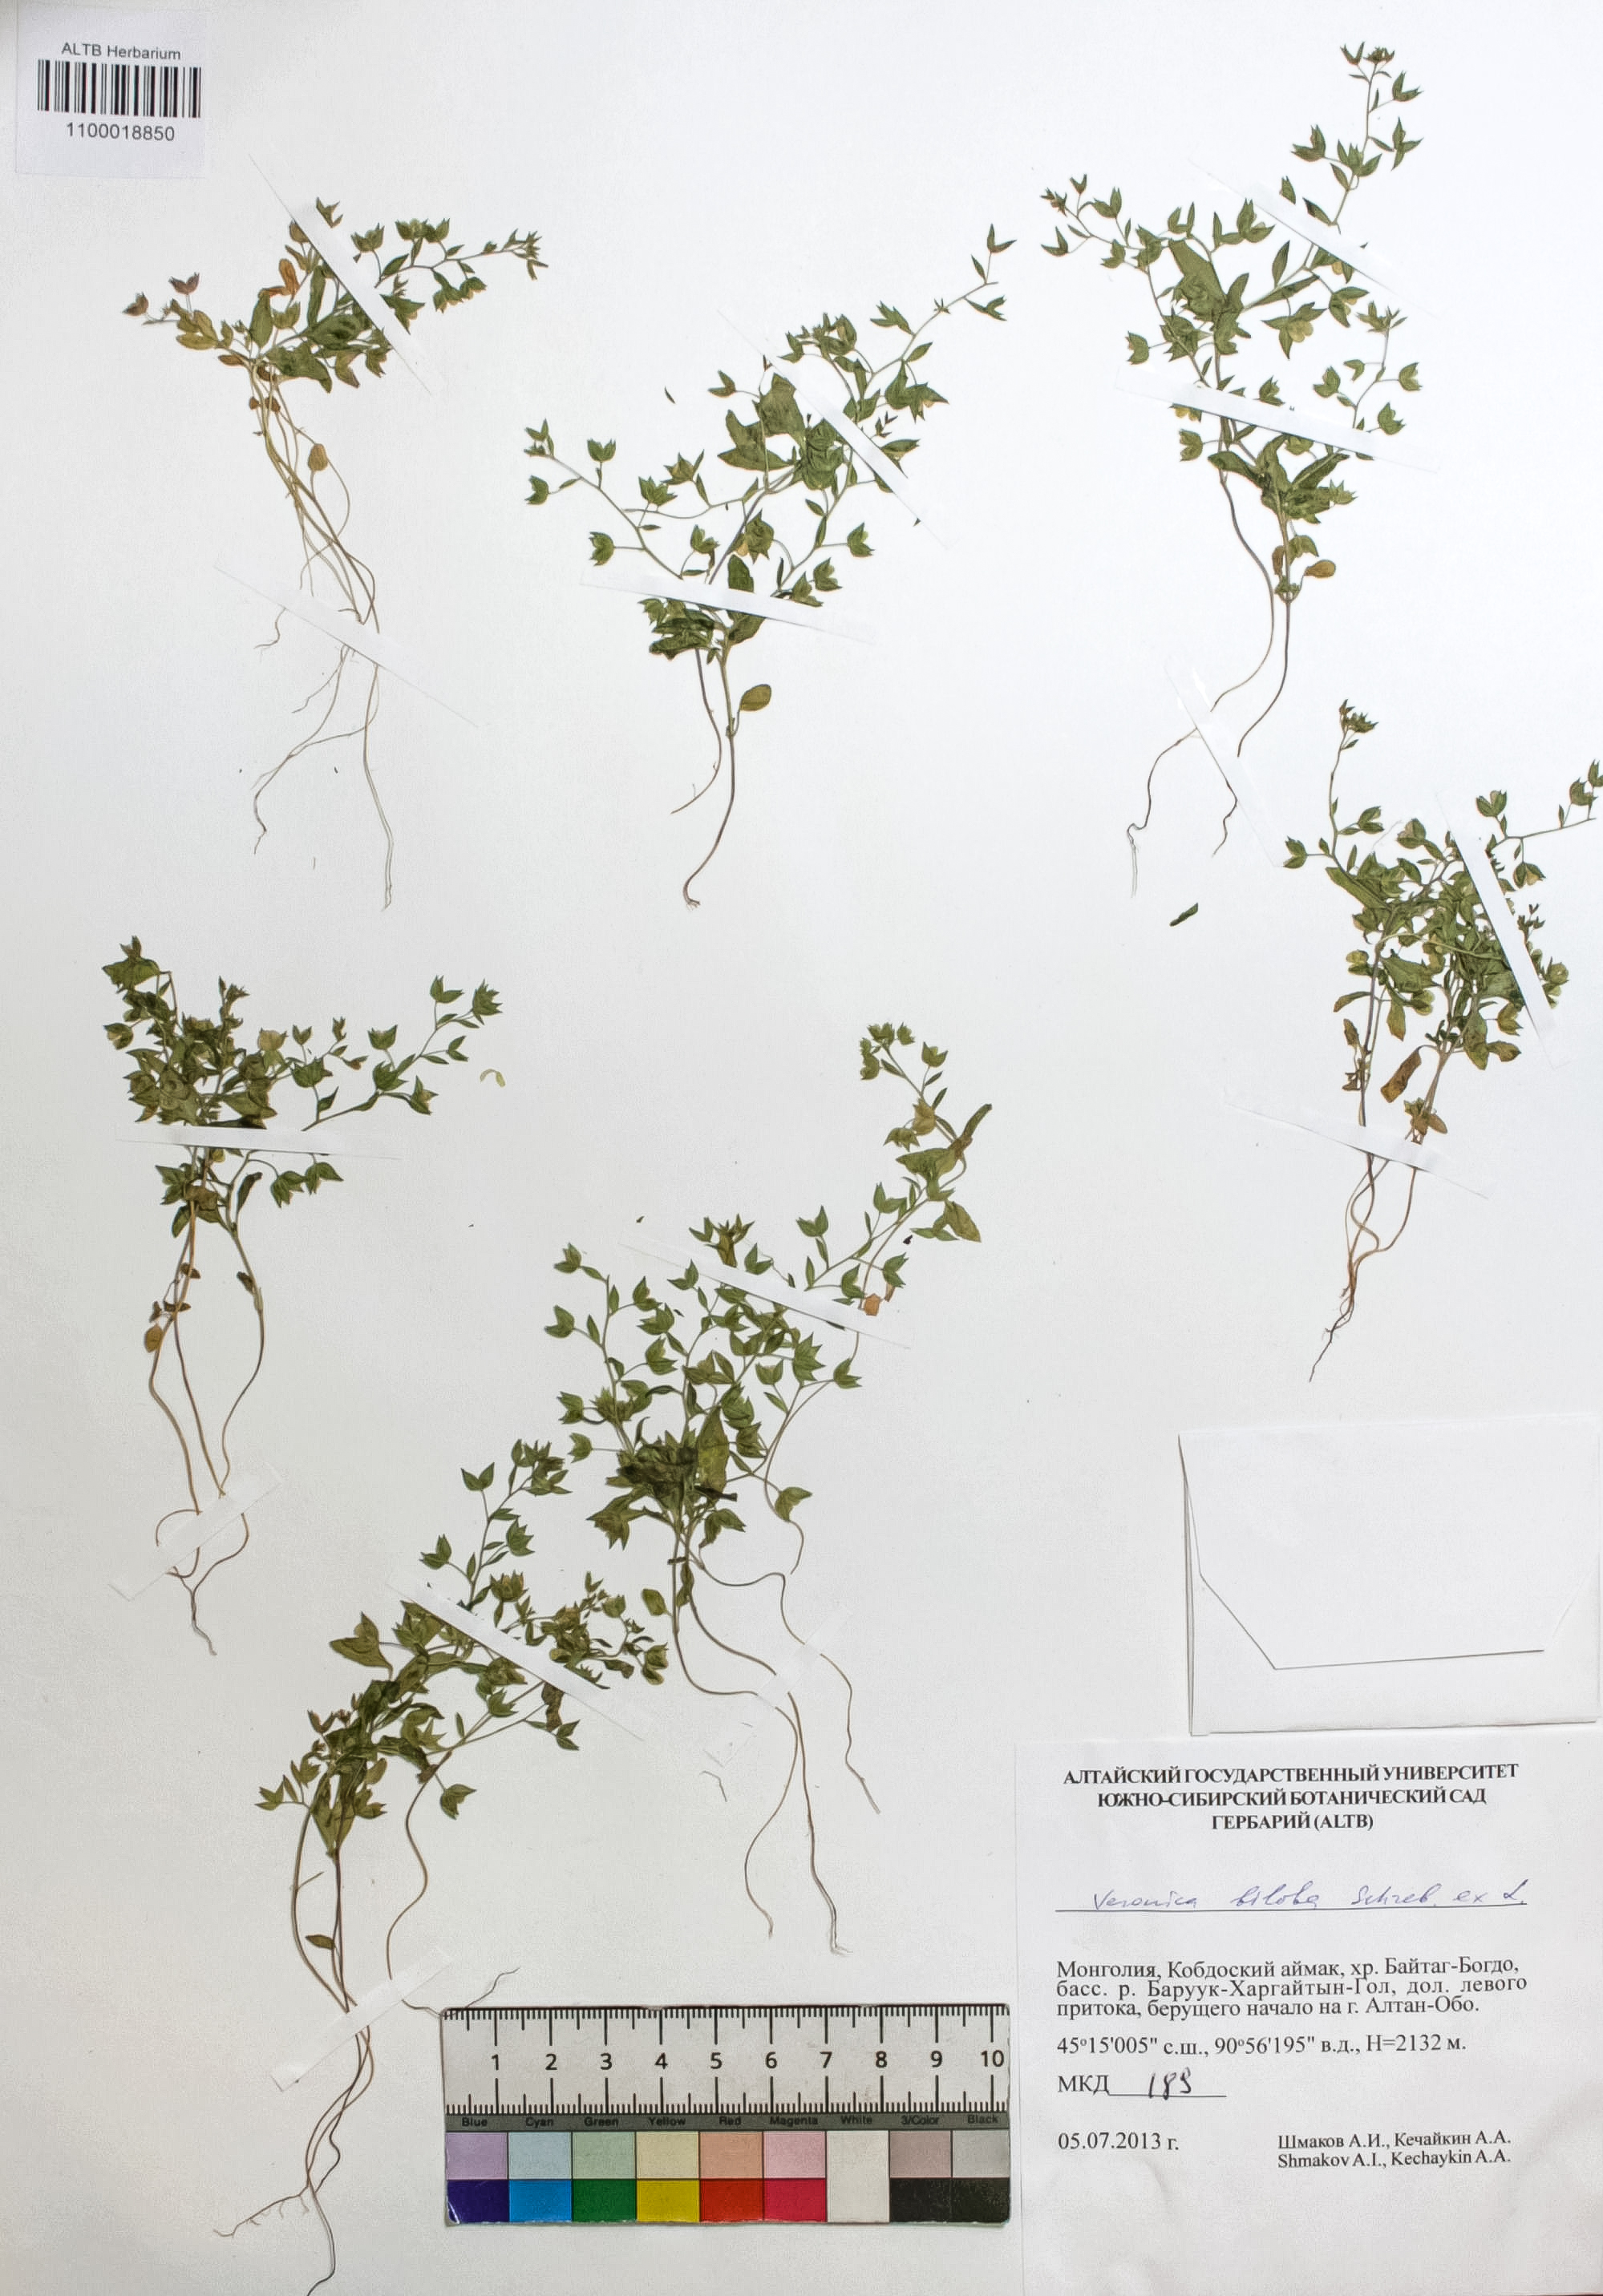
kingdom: Plantae
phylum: Tracheophyta
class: Magnoliopsida
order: Lamiales
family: Plantaginaceae
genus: Veronica
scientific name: Veronica biloba
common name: Twolobe speedwell
